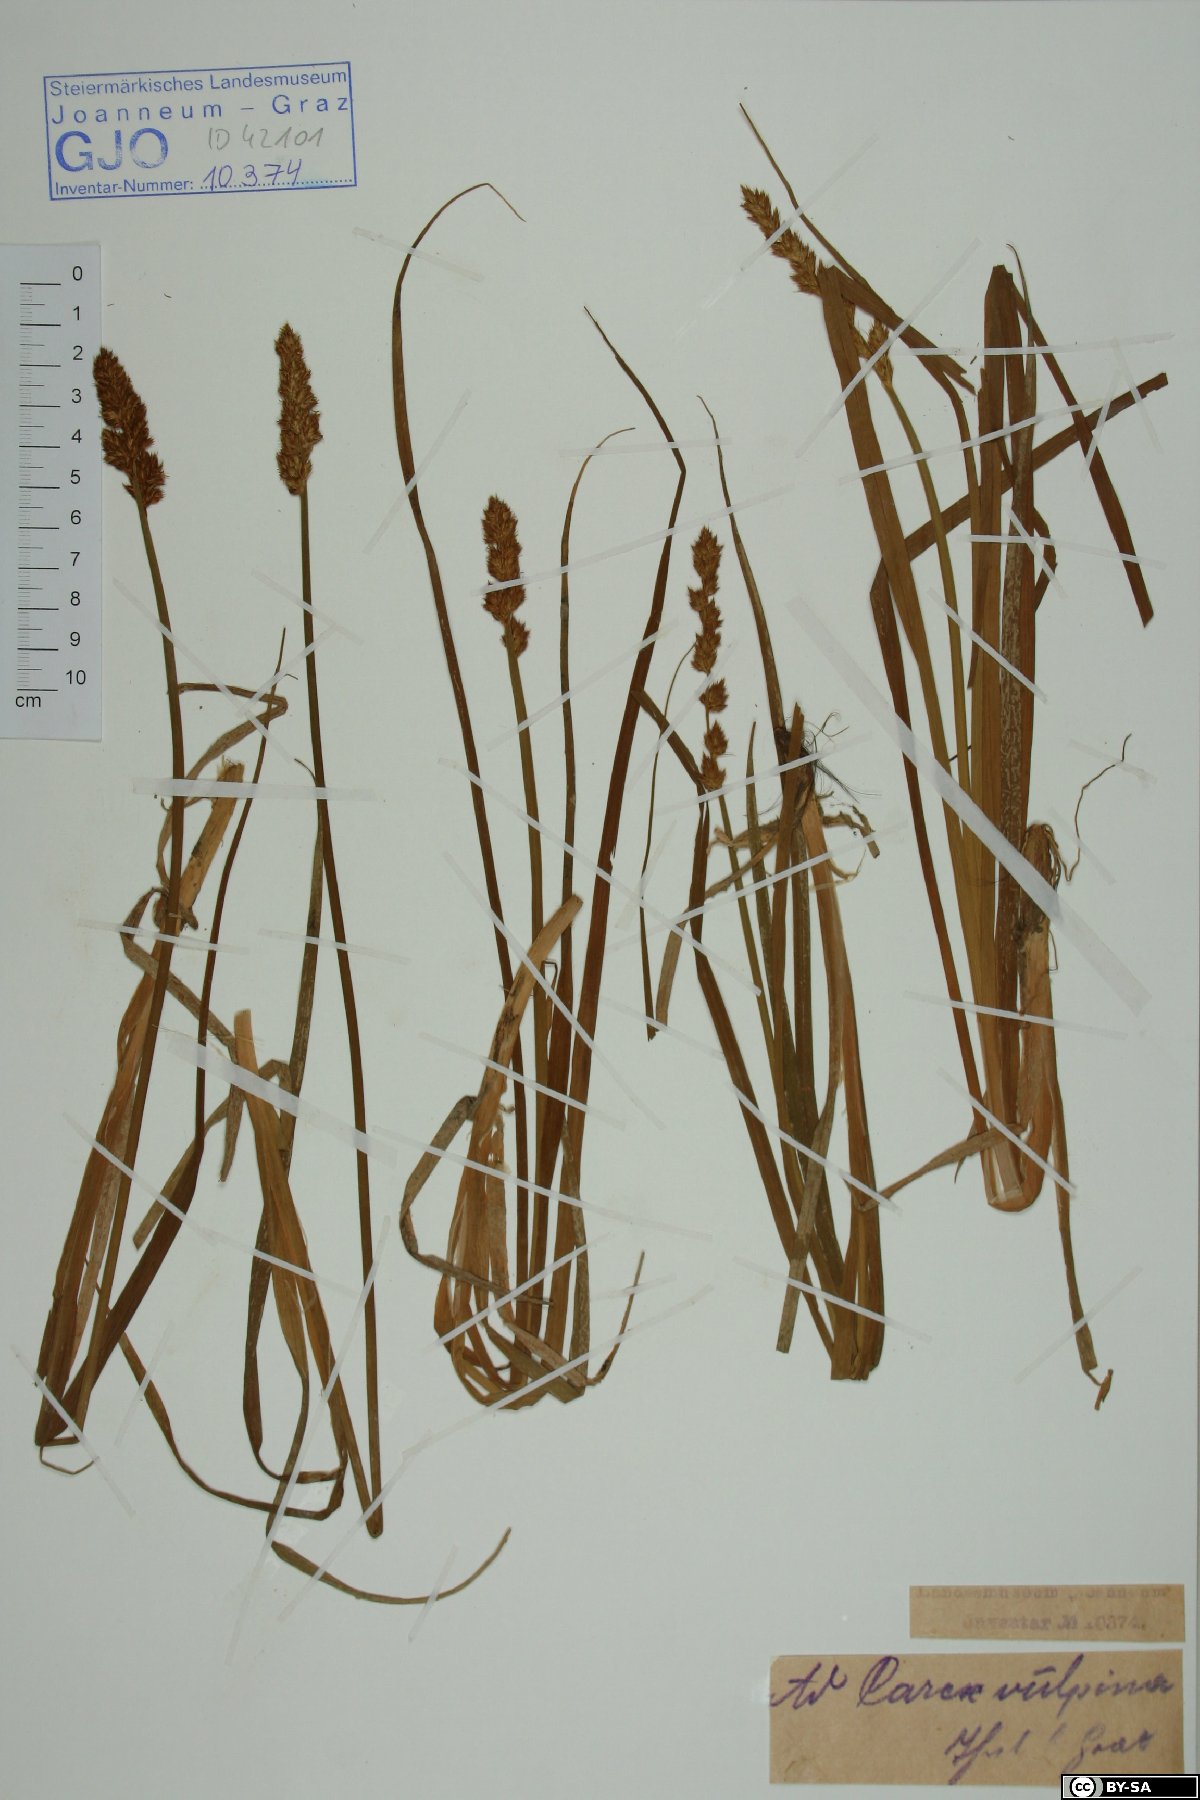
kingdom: Plantae
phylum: Tracheophyta
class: Liliopsida
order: Poales
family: Cyperaceae
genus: Carex
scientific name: Carex vulpina
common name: True fox-sedge
